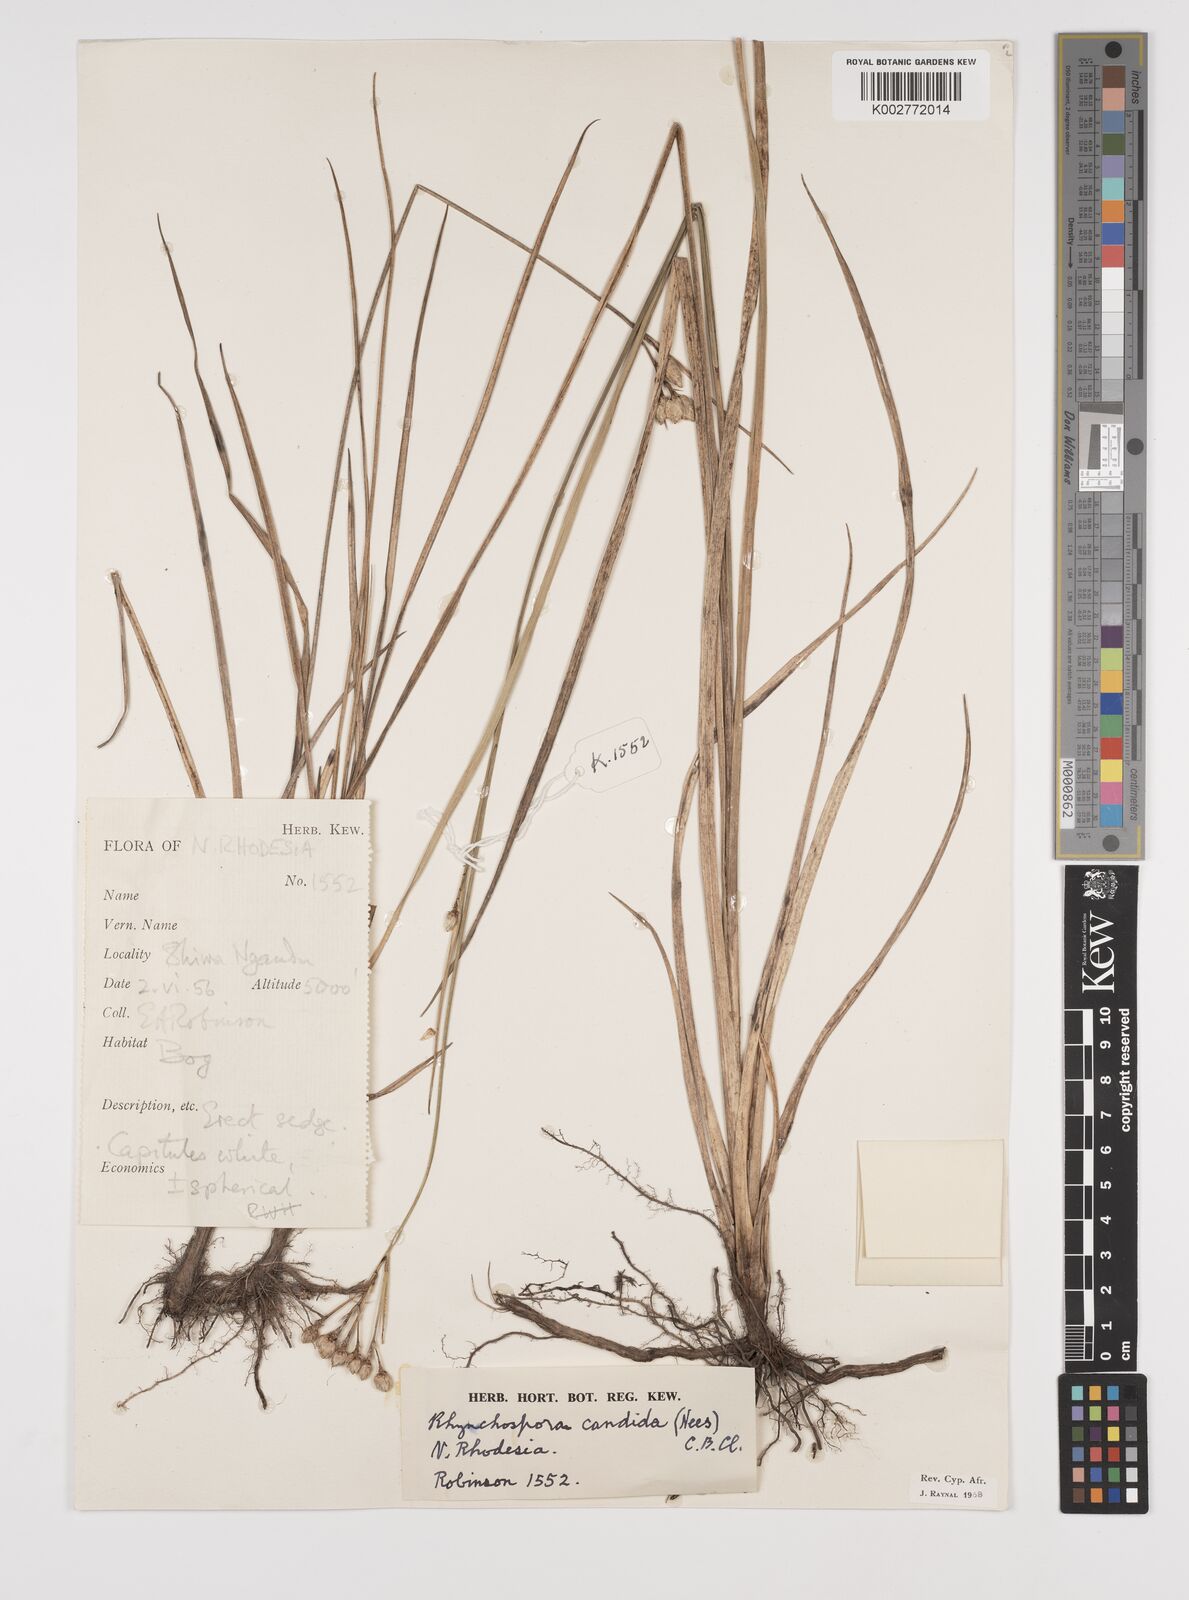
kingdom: Plantae
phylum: Tracheophyta
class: Liliopsida
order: Poales
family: Cyperaceae
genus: Rhynchospora
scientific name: Rhynchospora candida
